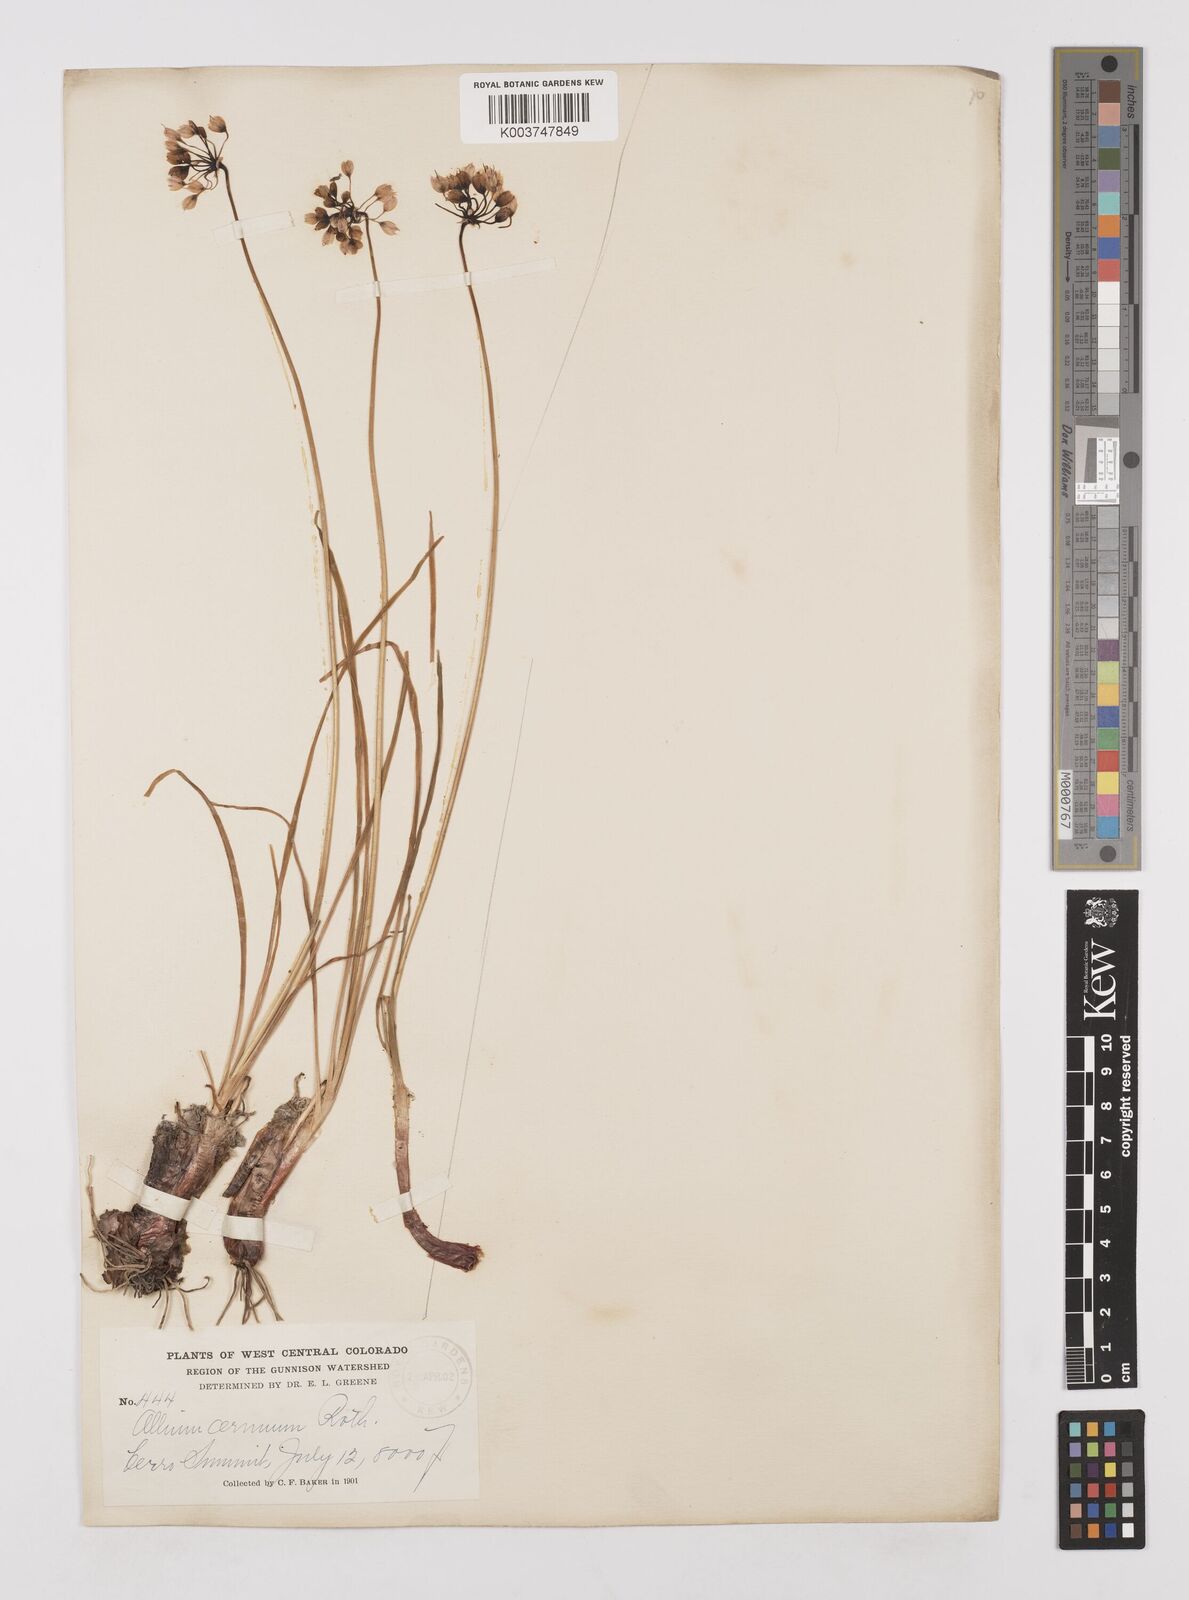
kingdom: Plantae
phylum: Tracheophyta
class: Liliopsida
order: Asparagales
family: Amaryllidaceae
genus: Allium
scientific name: Allium cernuum
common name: Nodding onion
